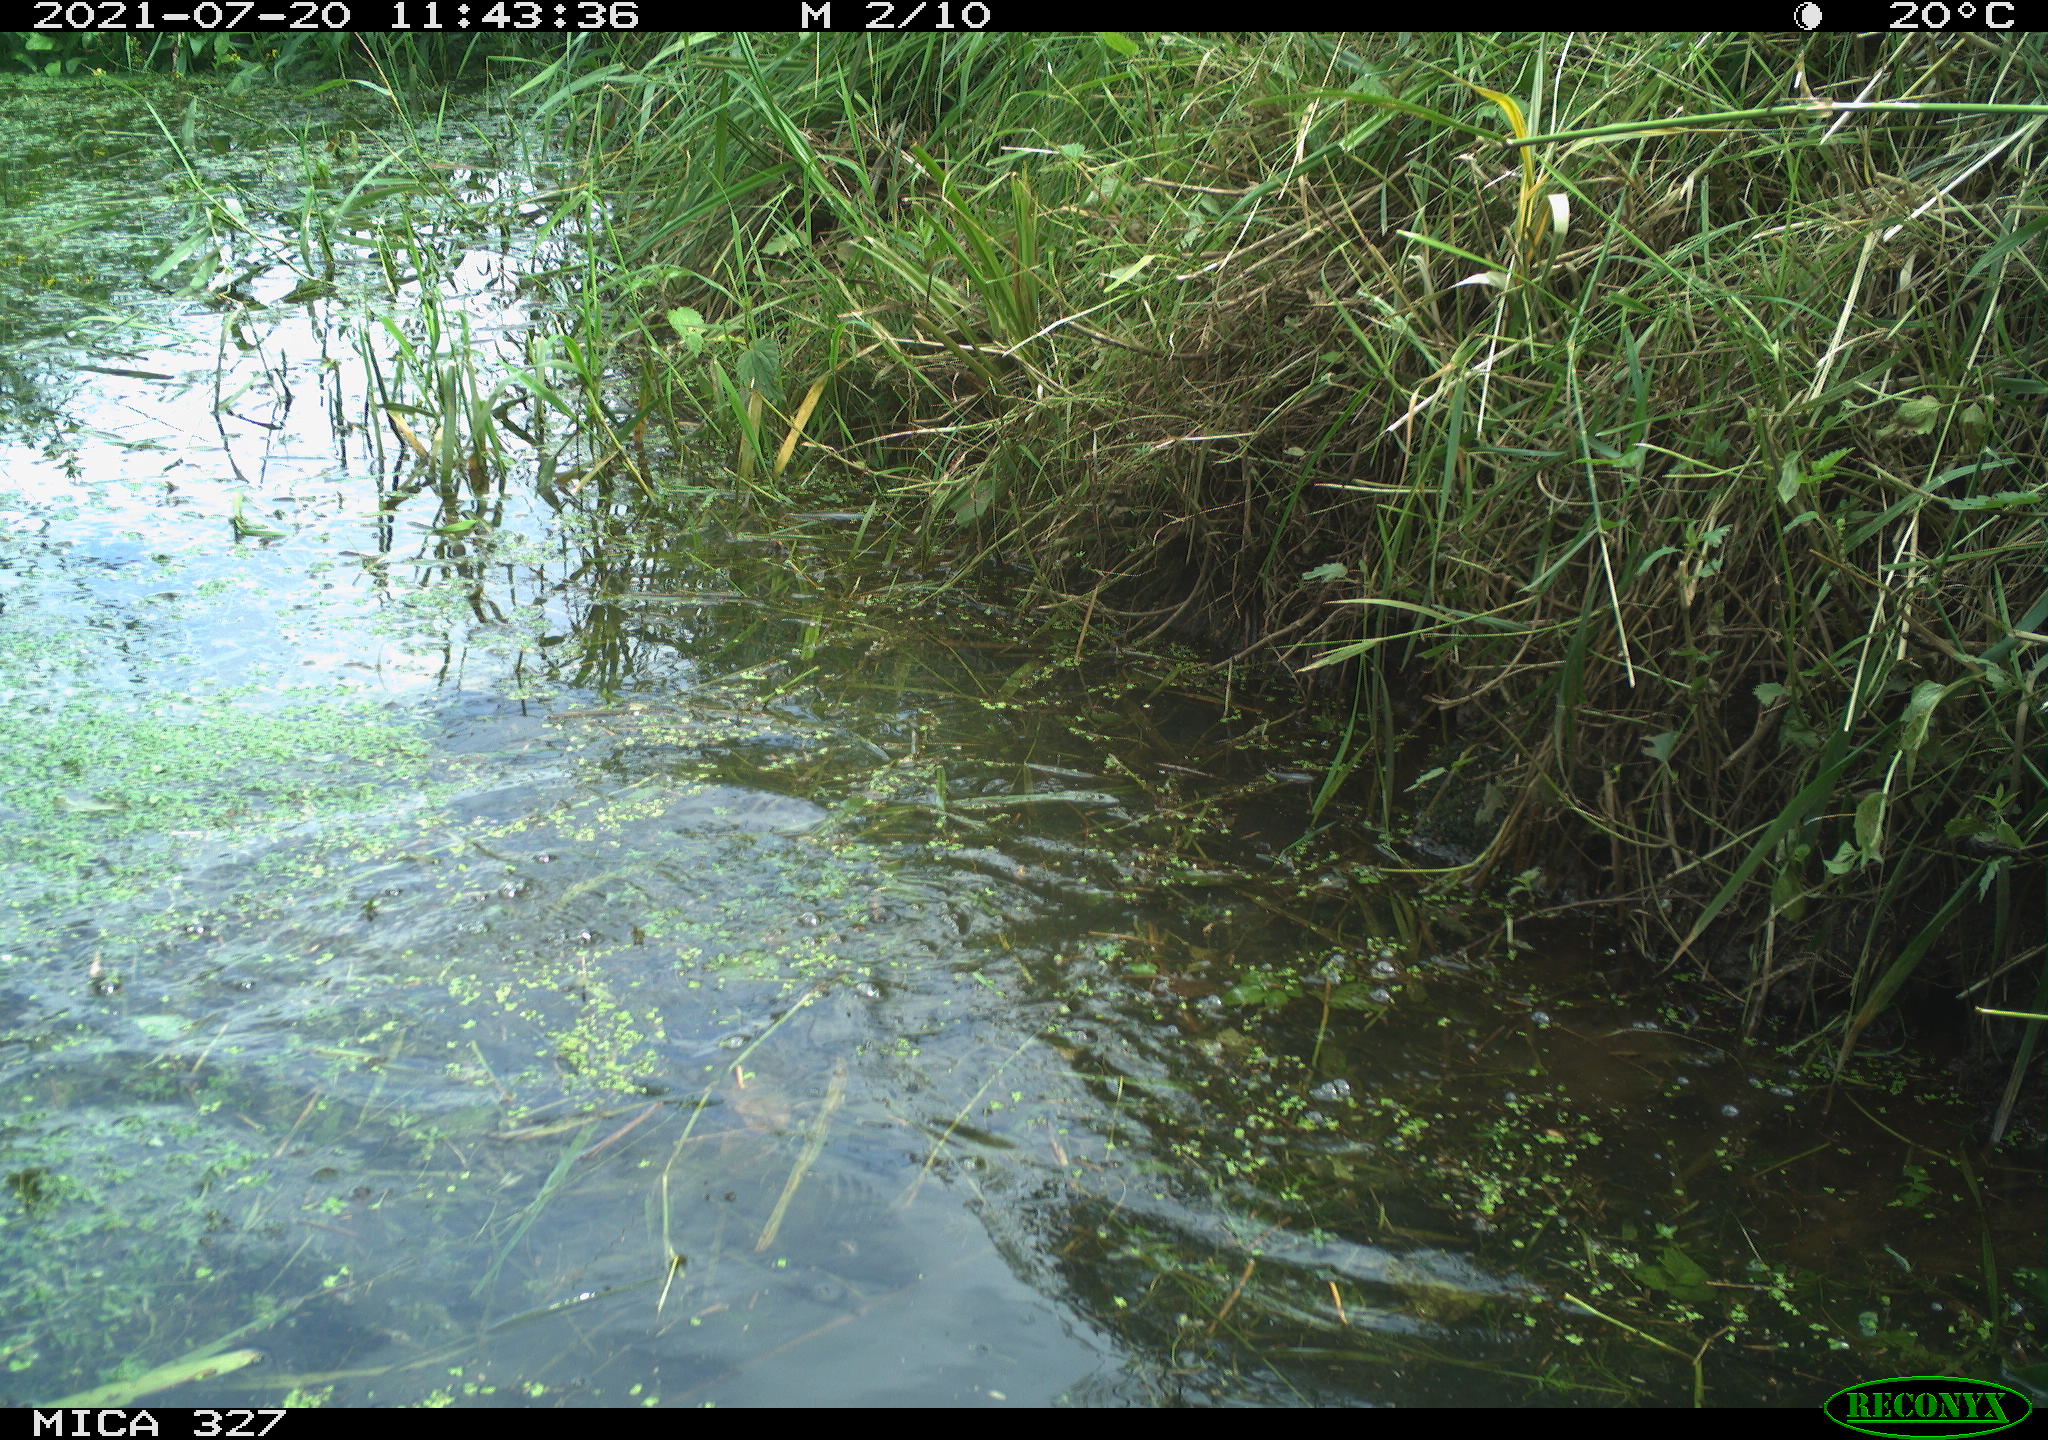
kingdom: Animalia
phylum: Chordata
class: Aves
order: Gruiformes
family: Rallidae
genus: Gallinula
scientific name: Gallinula chloropus
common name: Common moorhen
